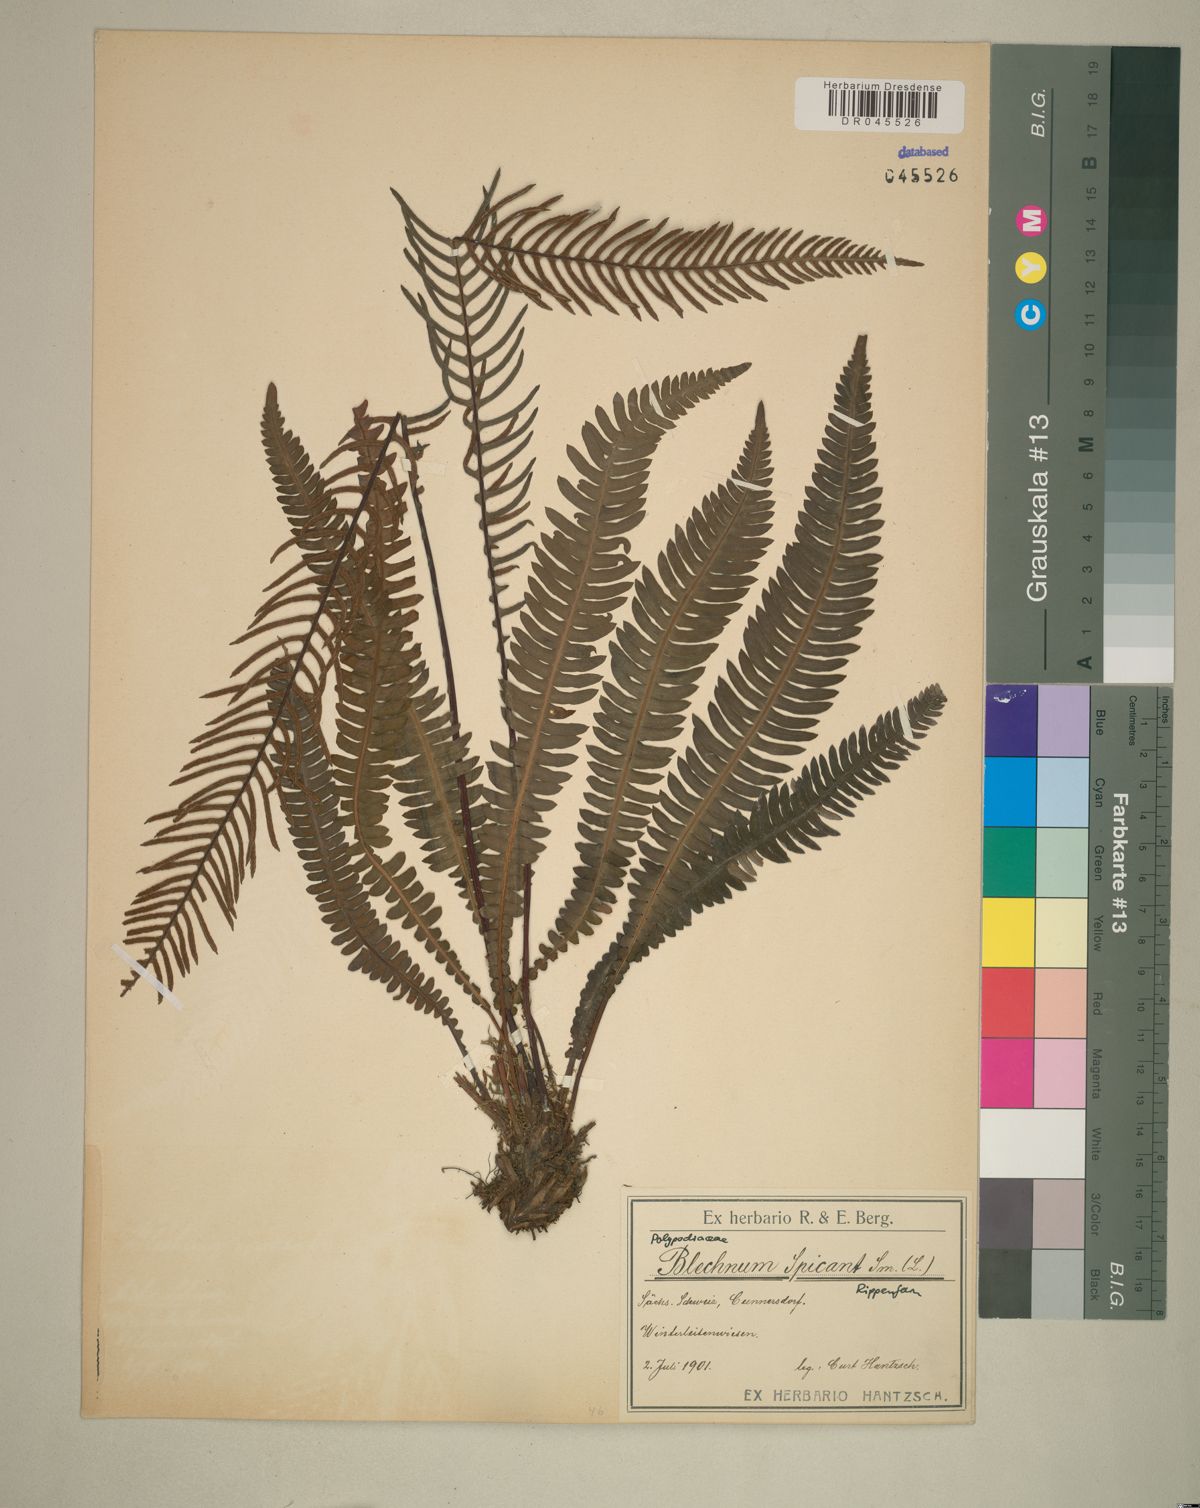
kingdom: Plantae
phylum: Tracheophyta
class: Polypodiopsida
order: Polypodiales
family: Blechnaceae
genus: Struthiopteris
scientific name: Struthiopteris spicant
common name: Deer fern
